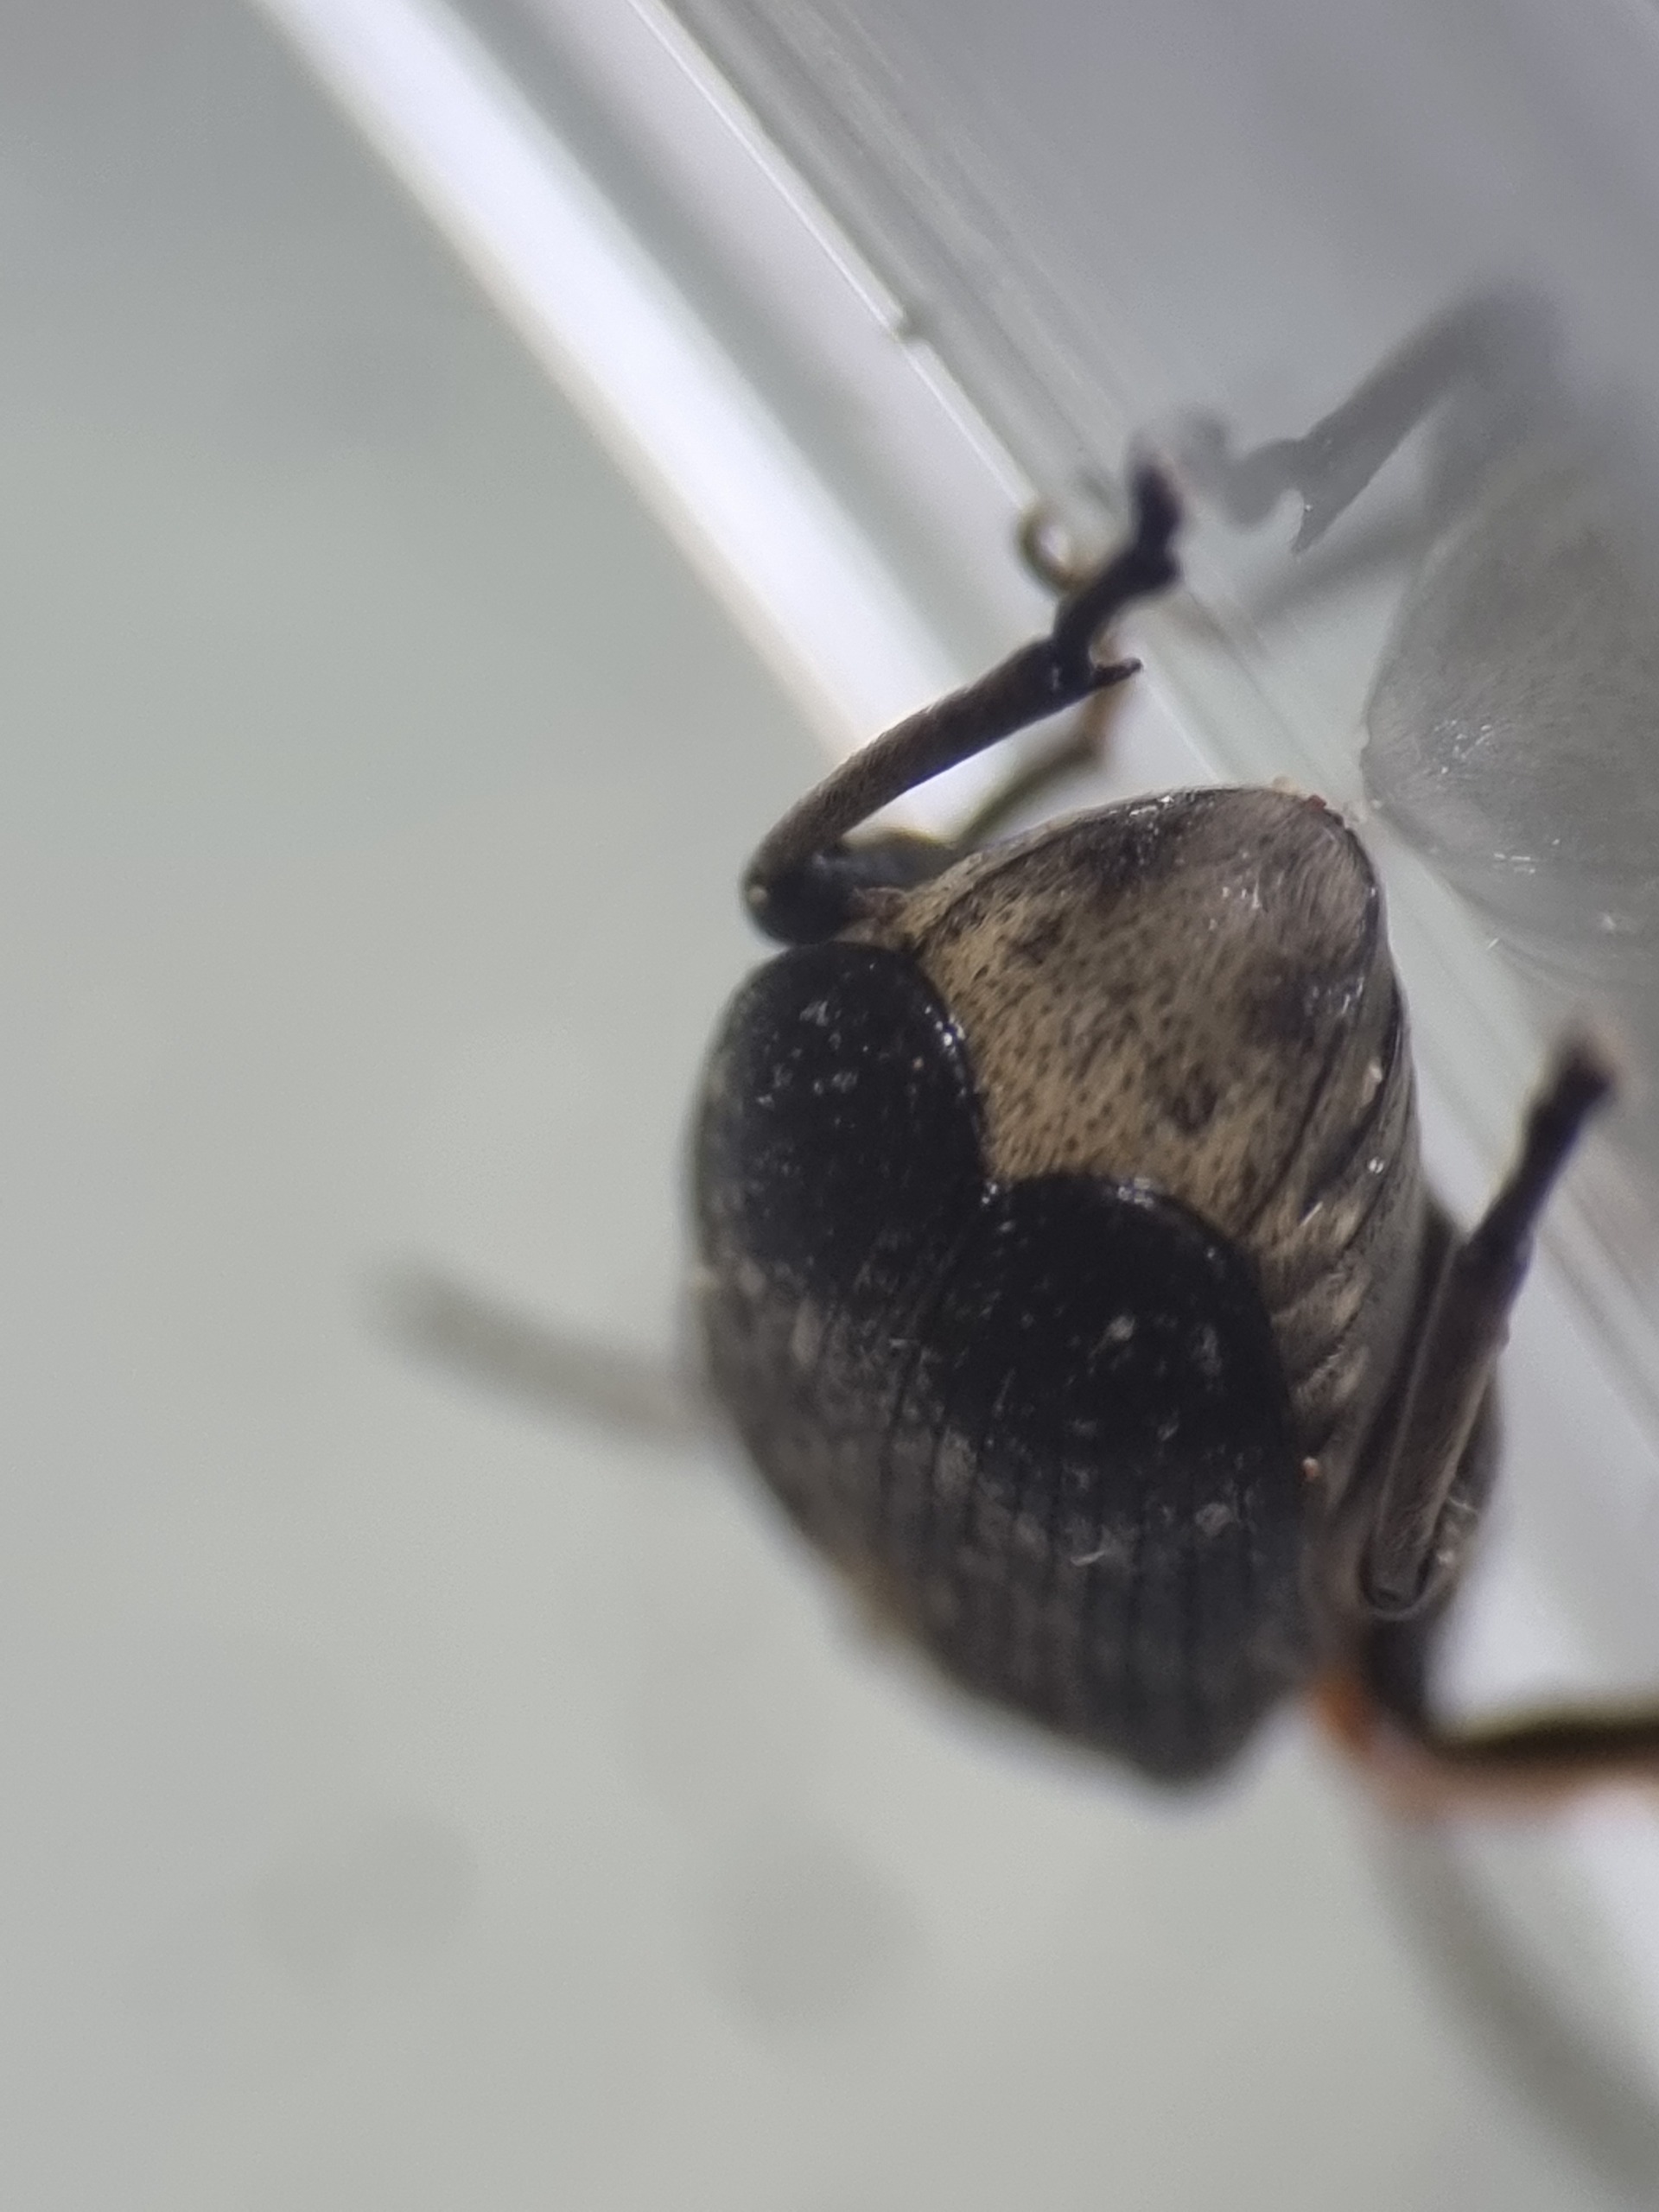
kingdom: Animalia
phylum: Arthropoda
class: Insecta
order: Coleoptera
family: Chrysomelidae
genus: Bruchus
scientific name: Bruchus rufimanus
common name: Hestebønnebille
